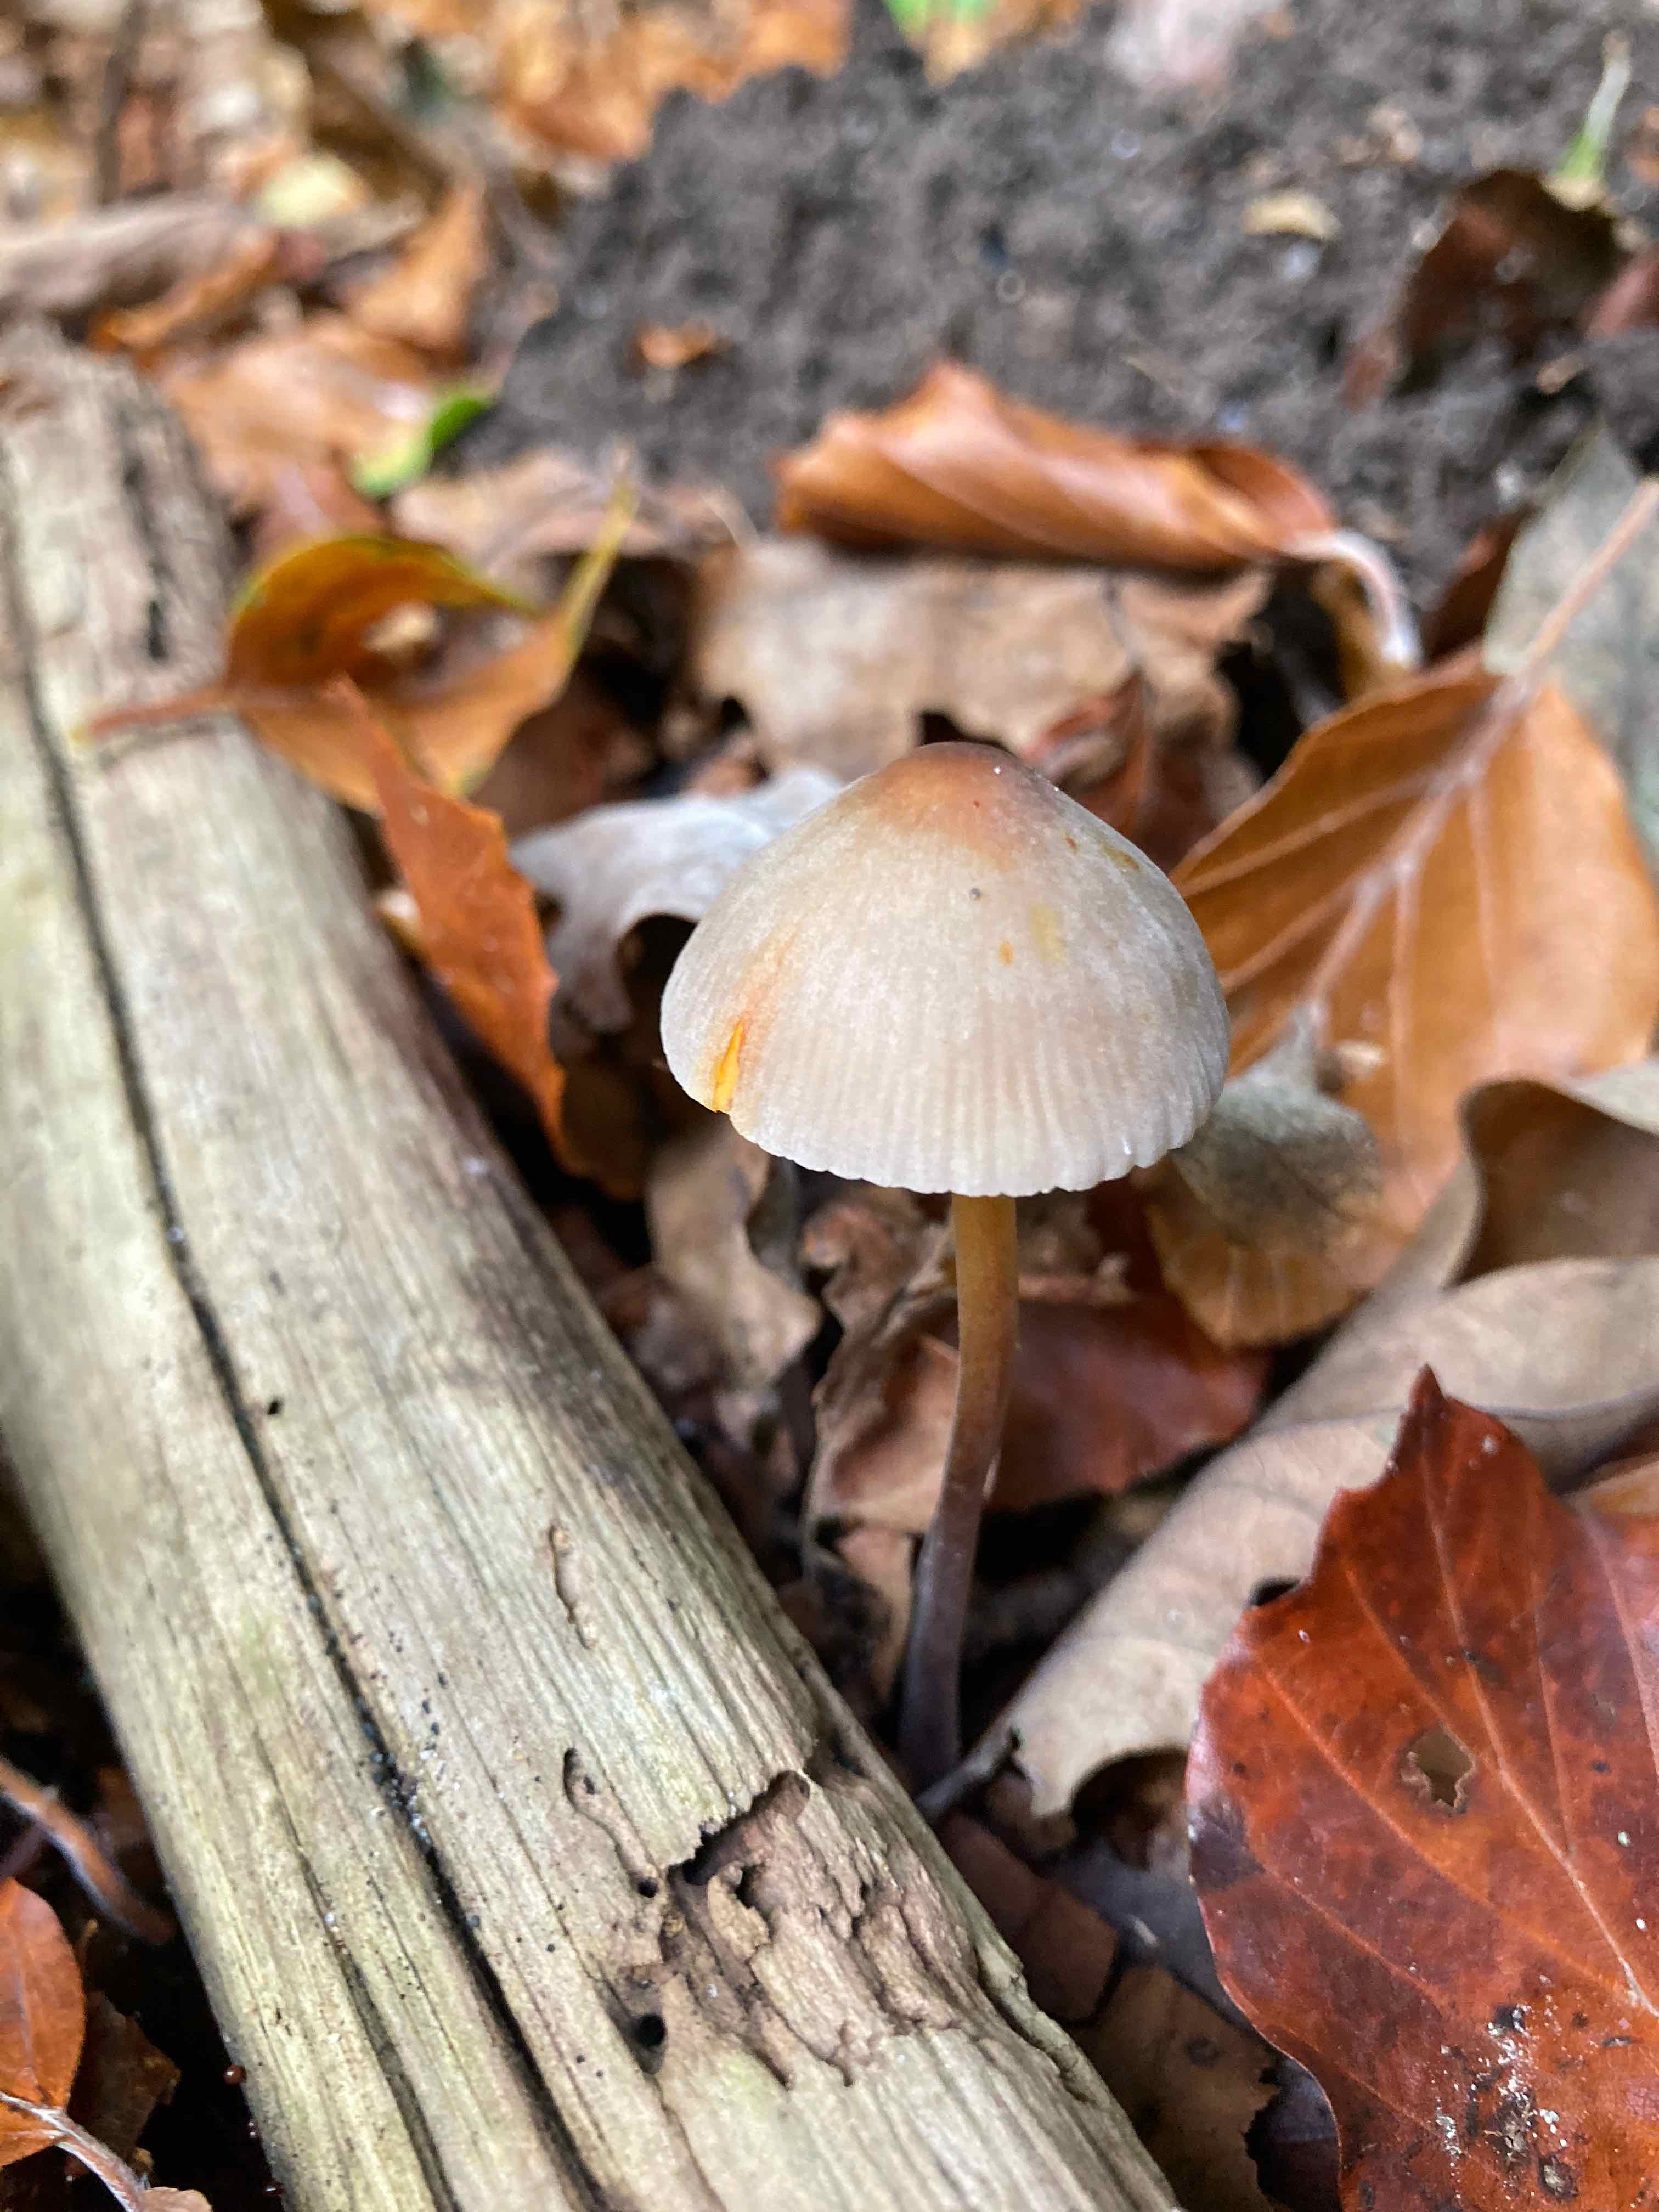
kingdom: Fungi
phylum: Basidiomycota
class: Agaricomycetes
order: Agaricales
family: Mycenaceae
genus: Mycena
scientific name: Mycena crocata
